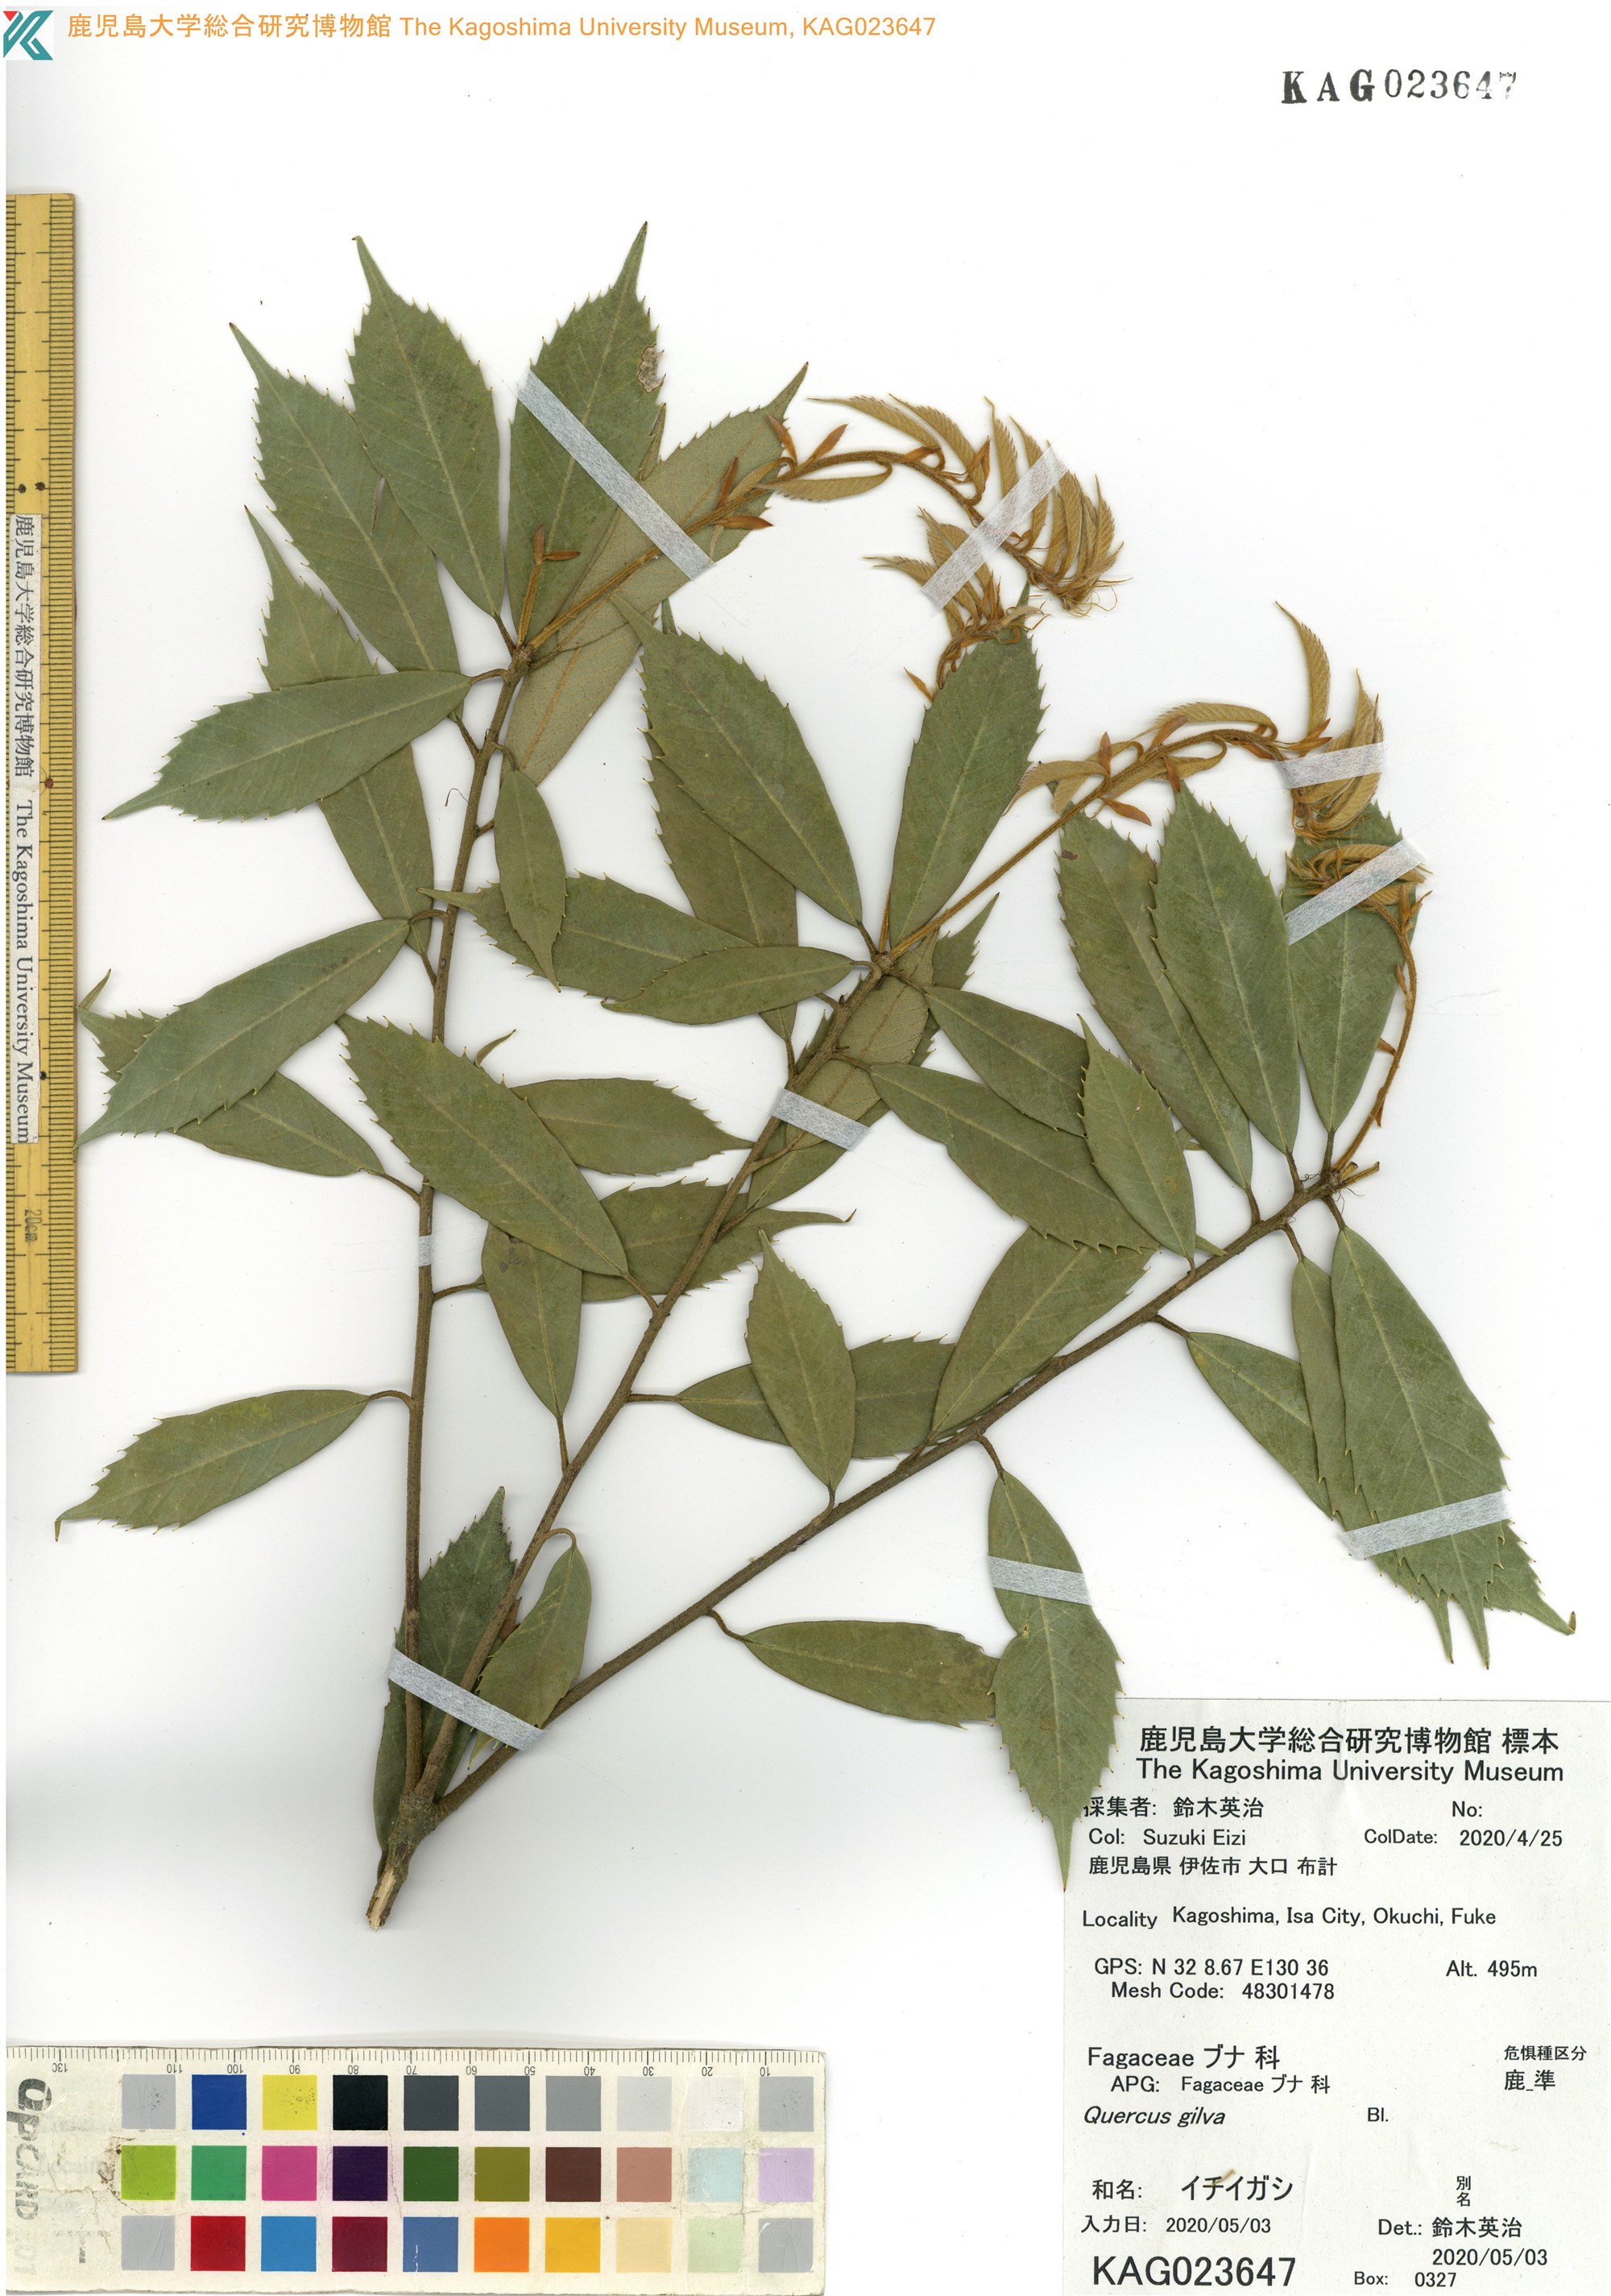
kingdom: Plantae
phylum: Tracheophyta
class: Magnoliopsida
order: Fagales
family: Fagaceae
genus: Quercus
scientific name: Quercus gilva
